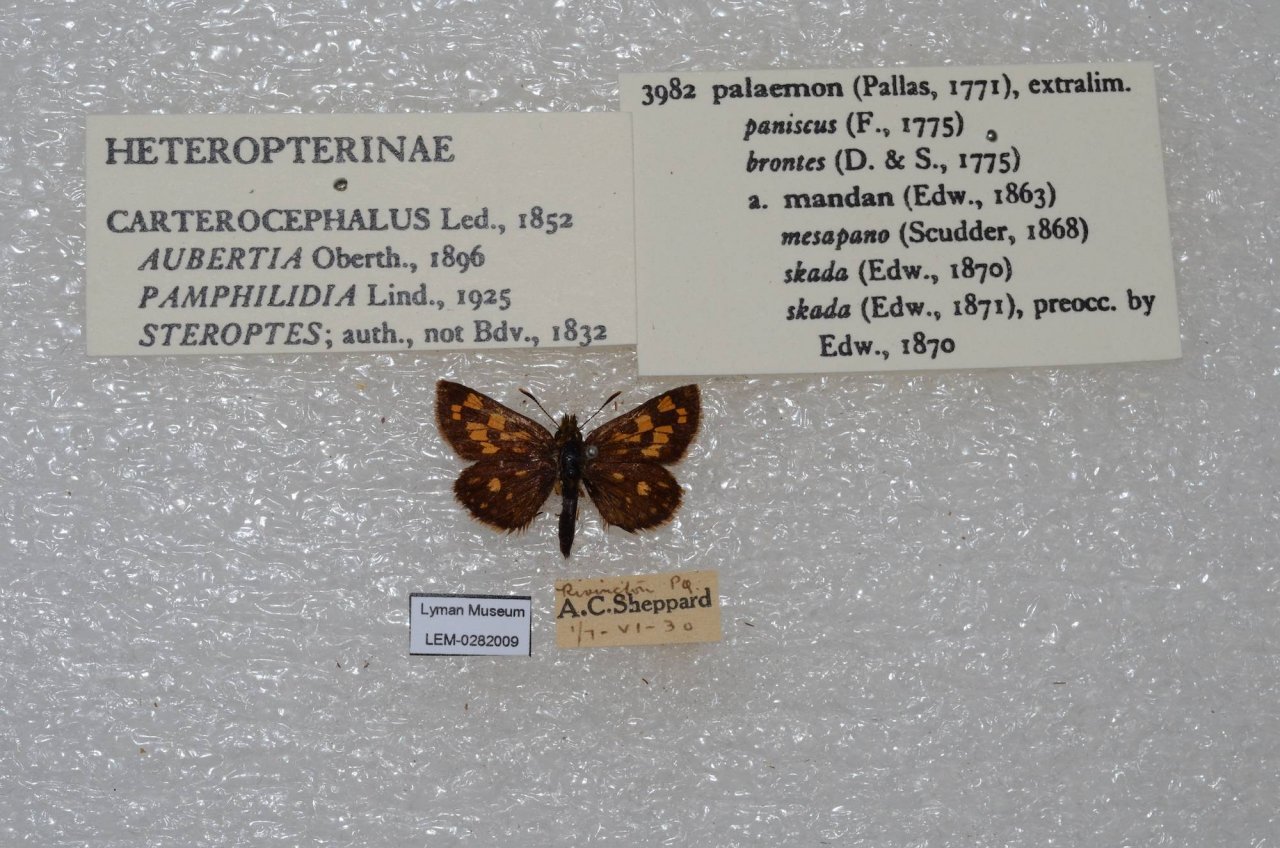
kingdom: Animalia
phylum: Arthropoda
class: Insecta
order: Lepidoptera
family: Hesperiidae
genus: Carterocephalus
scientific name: Carterocephalus palaemon
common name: Chequered Skipper
